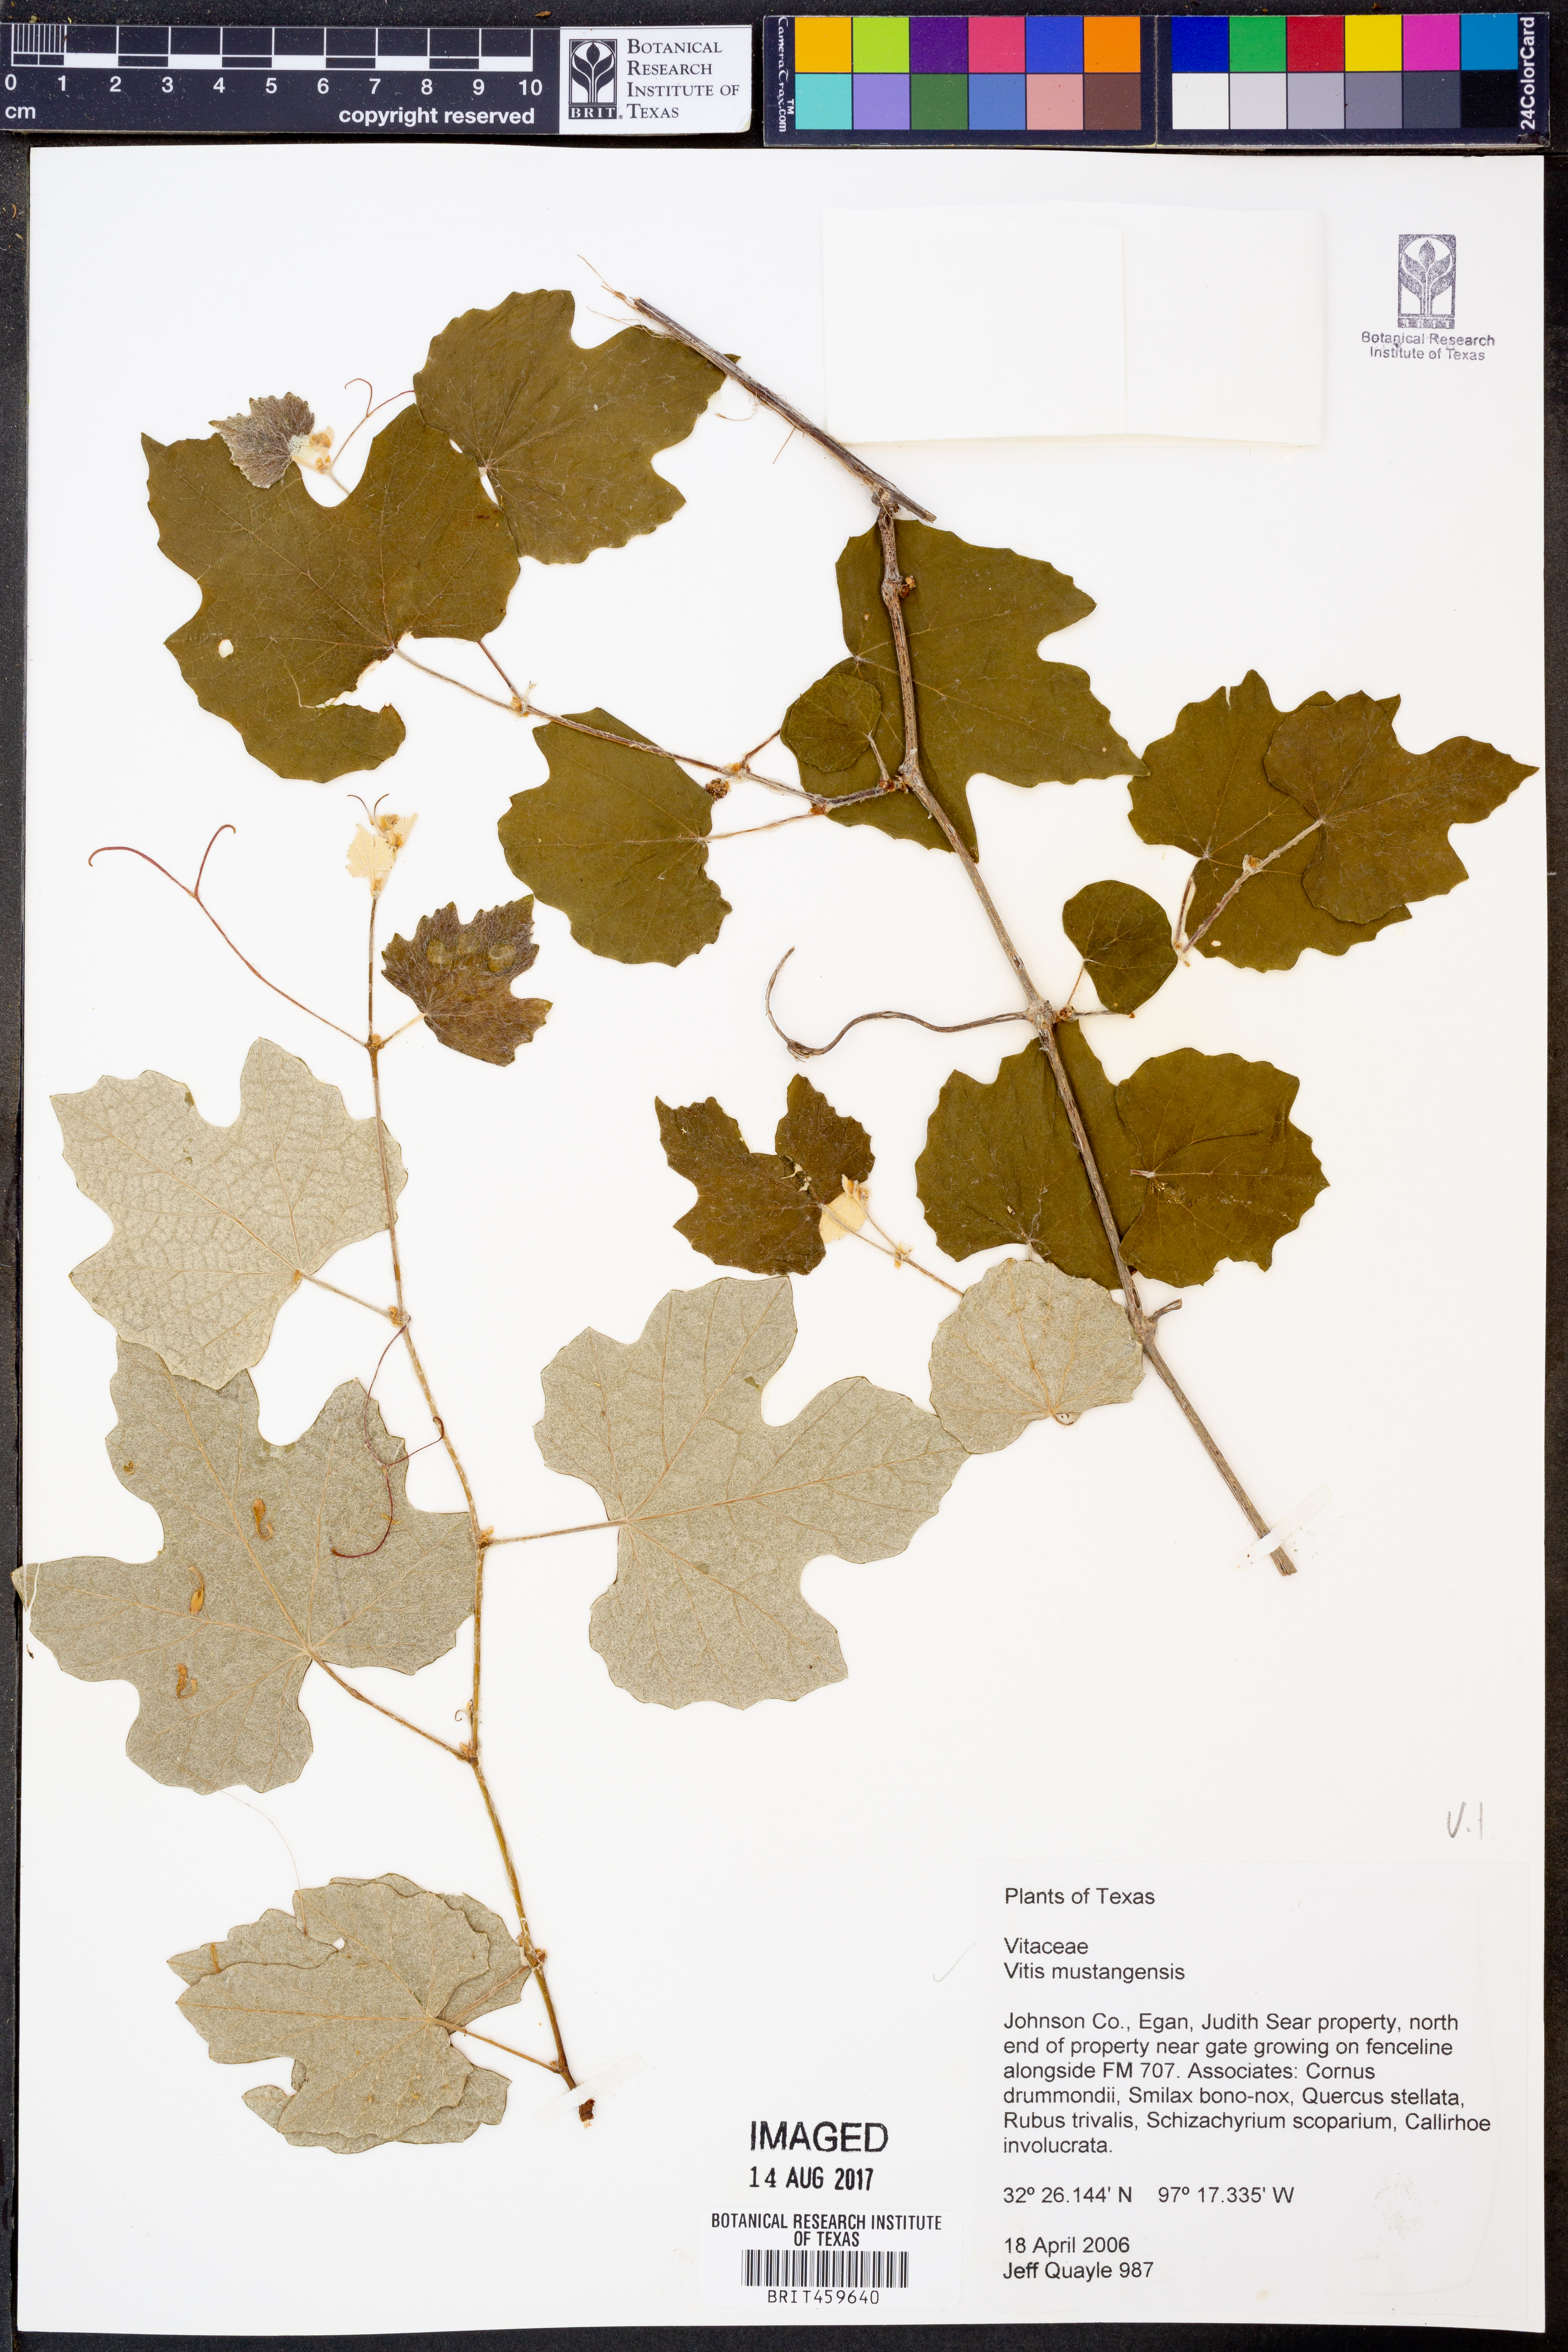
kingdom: Plantae
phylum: Tracheophyta
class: Magnoliopsida
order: Vitales
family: Vitaceae
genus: Vitis
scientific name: Vitis mustangensis
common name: Mustang grape
